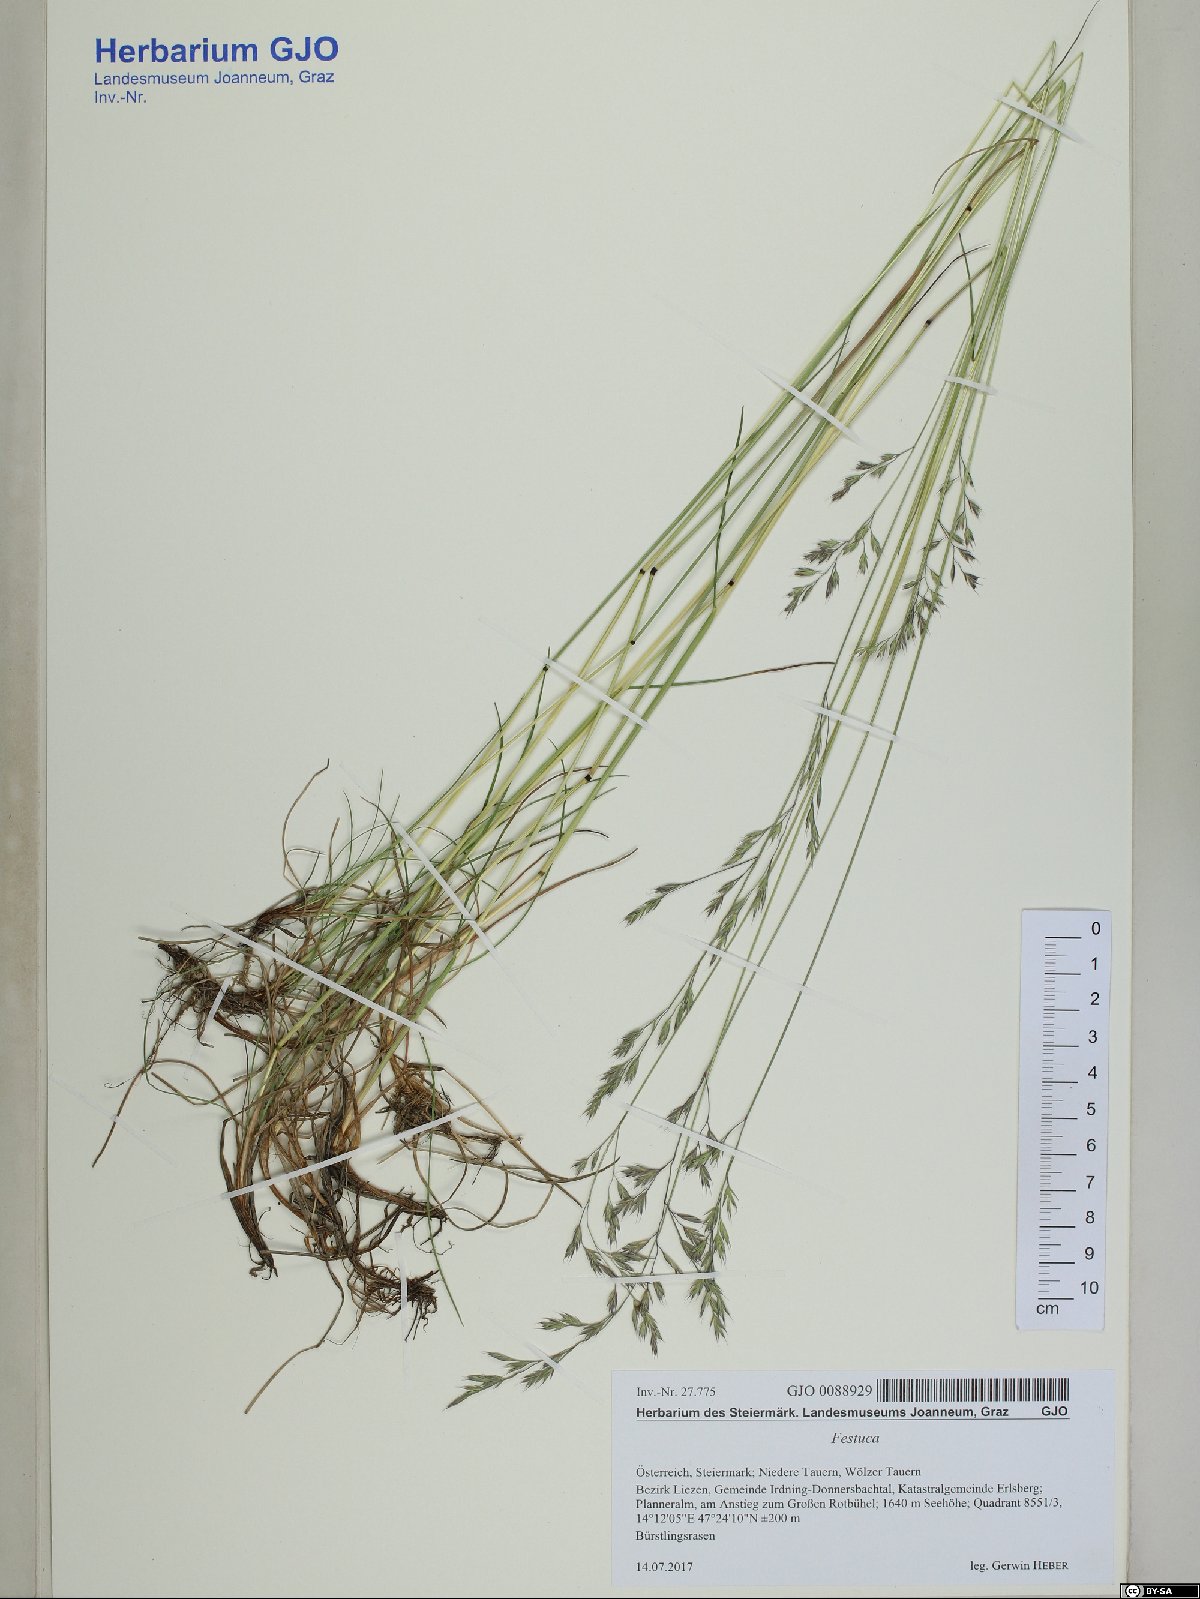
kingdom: Plantae
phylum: Tracheophyta
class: Liliopsida
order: Poales
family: Poaceae
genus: Festuca
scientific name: Festuca rubra
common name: Red fescue
